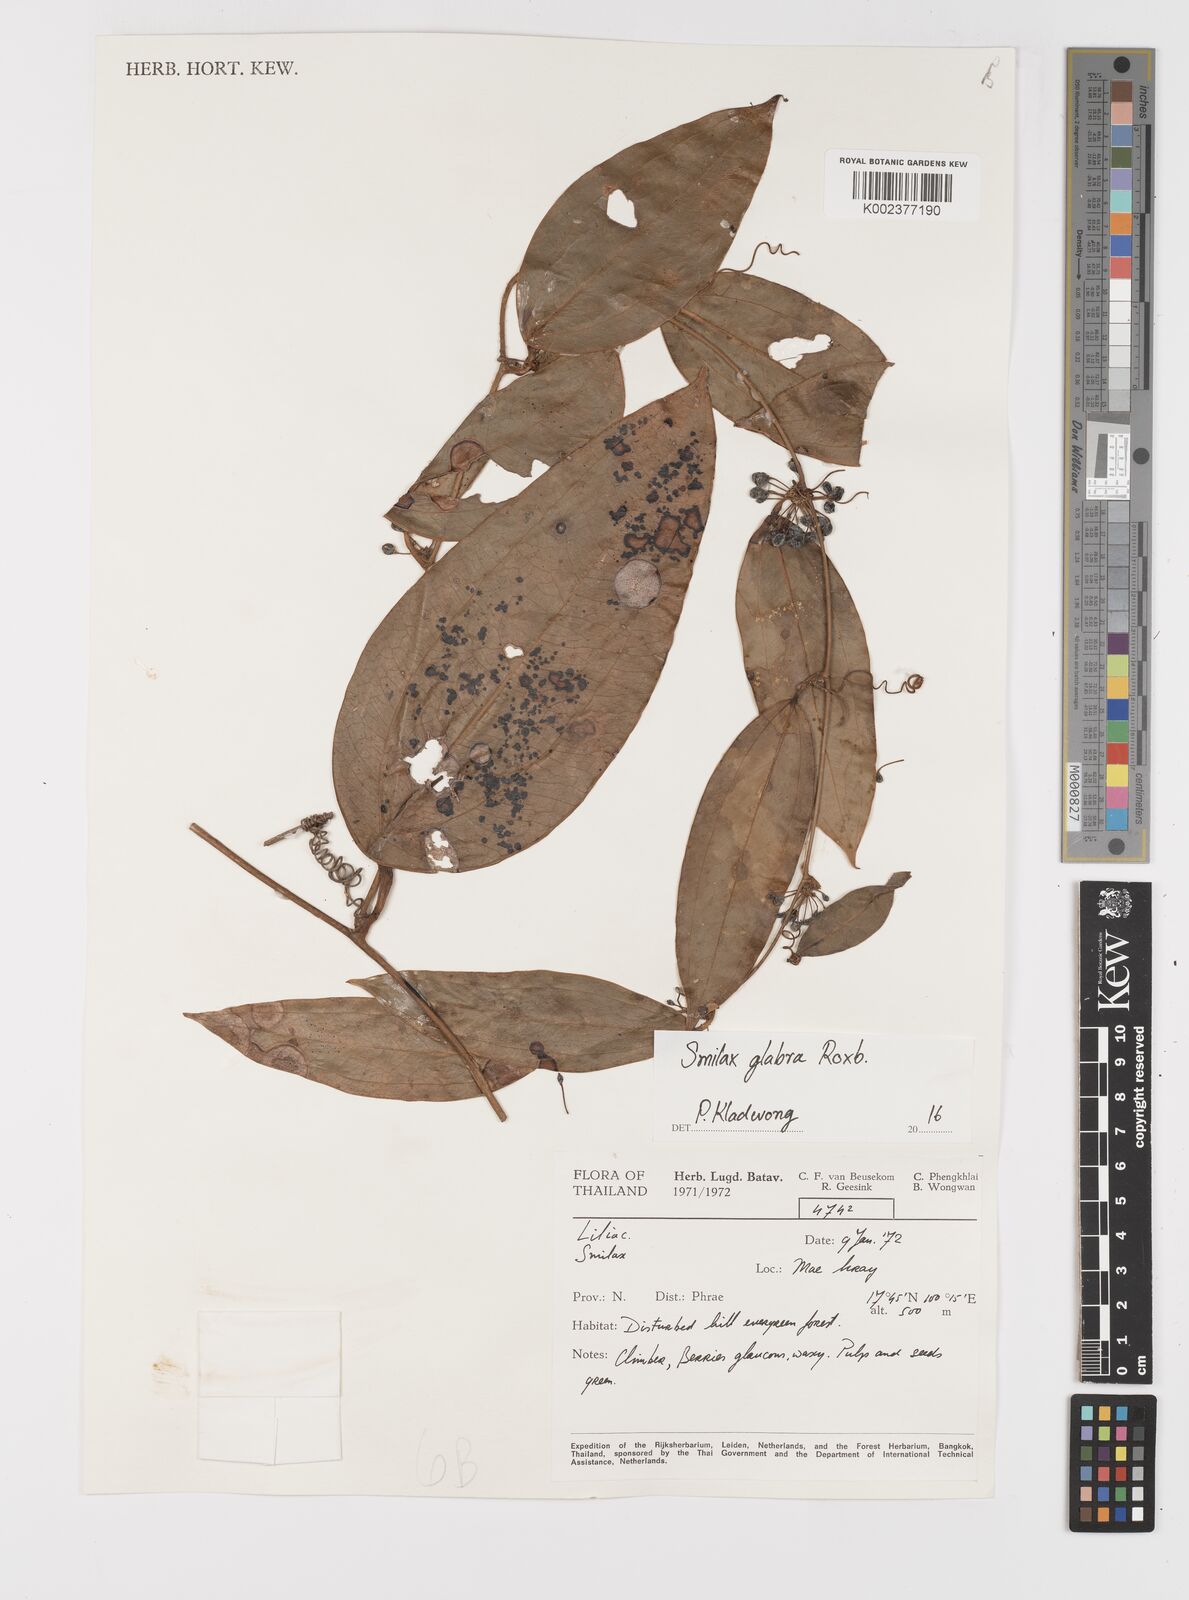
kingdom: Plantae
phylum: Tracheophyta
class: Liliopsida
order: Liliales
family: Smilacaceae
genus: Smilax
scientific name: Smilax glabra
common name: Chinese smilax
